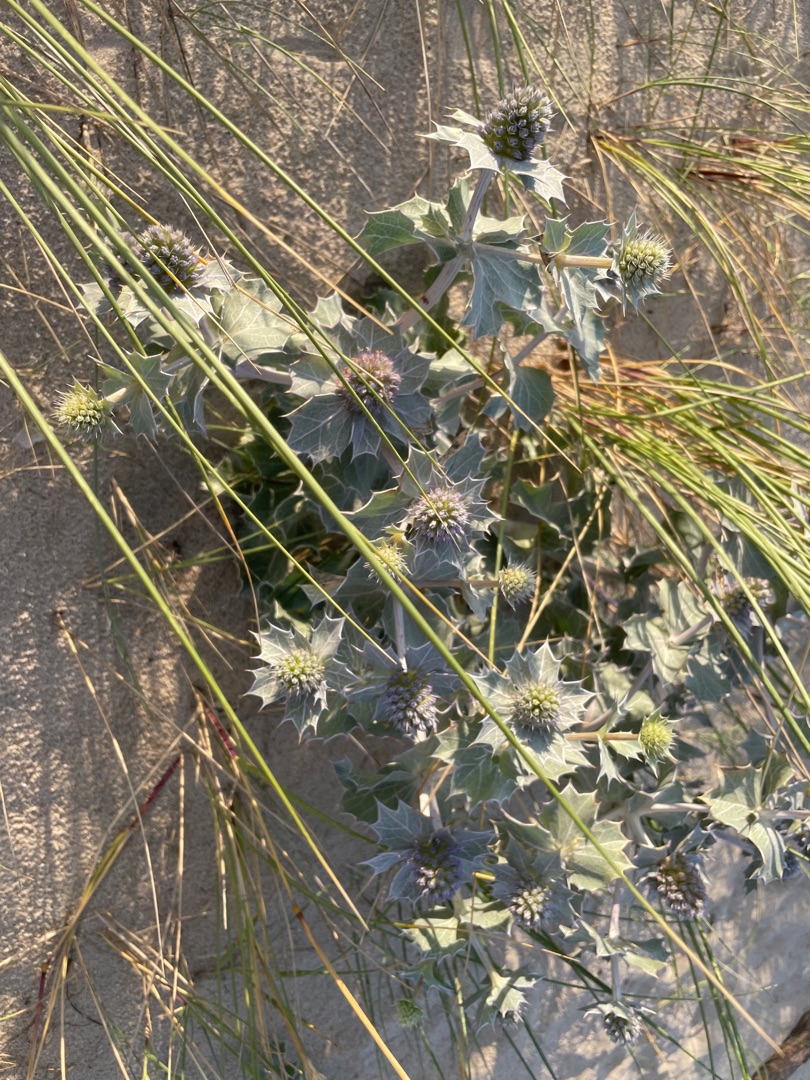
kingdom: Plantae
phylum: Tracheophyta
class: Magnoliopsida
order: Apiales
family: Apiaceae
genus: Eryngium
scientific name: Eryngium maritimum
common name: Strand-mandstro
